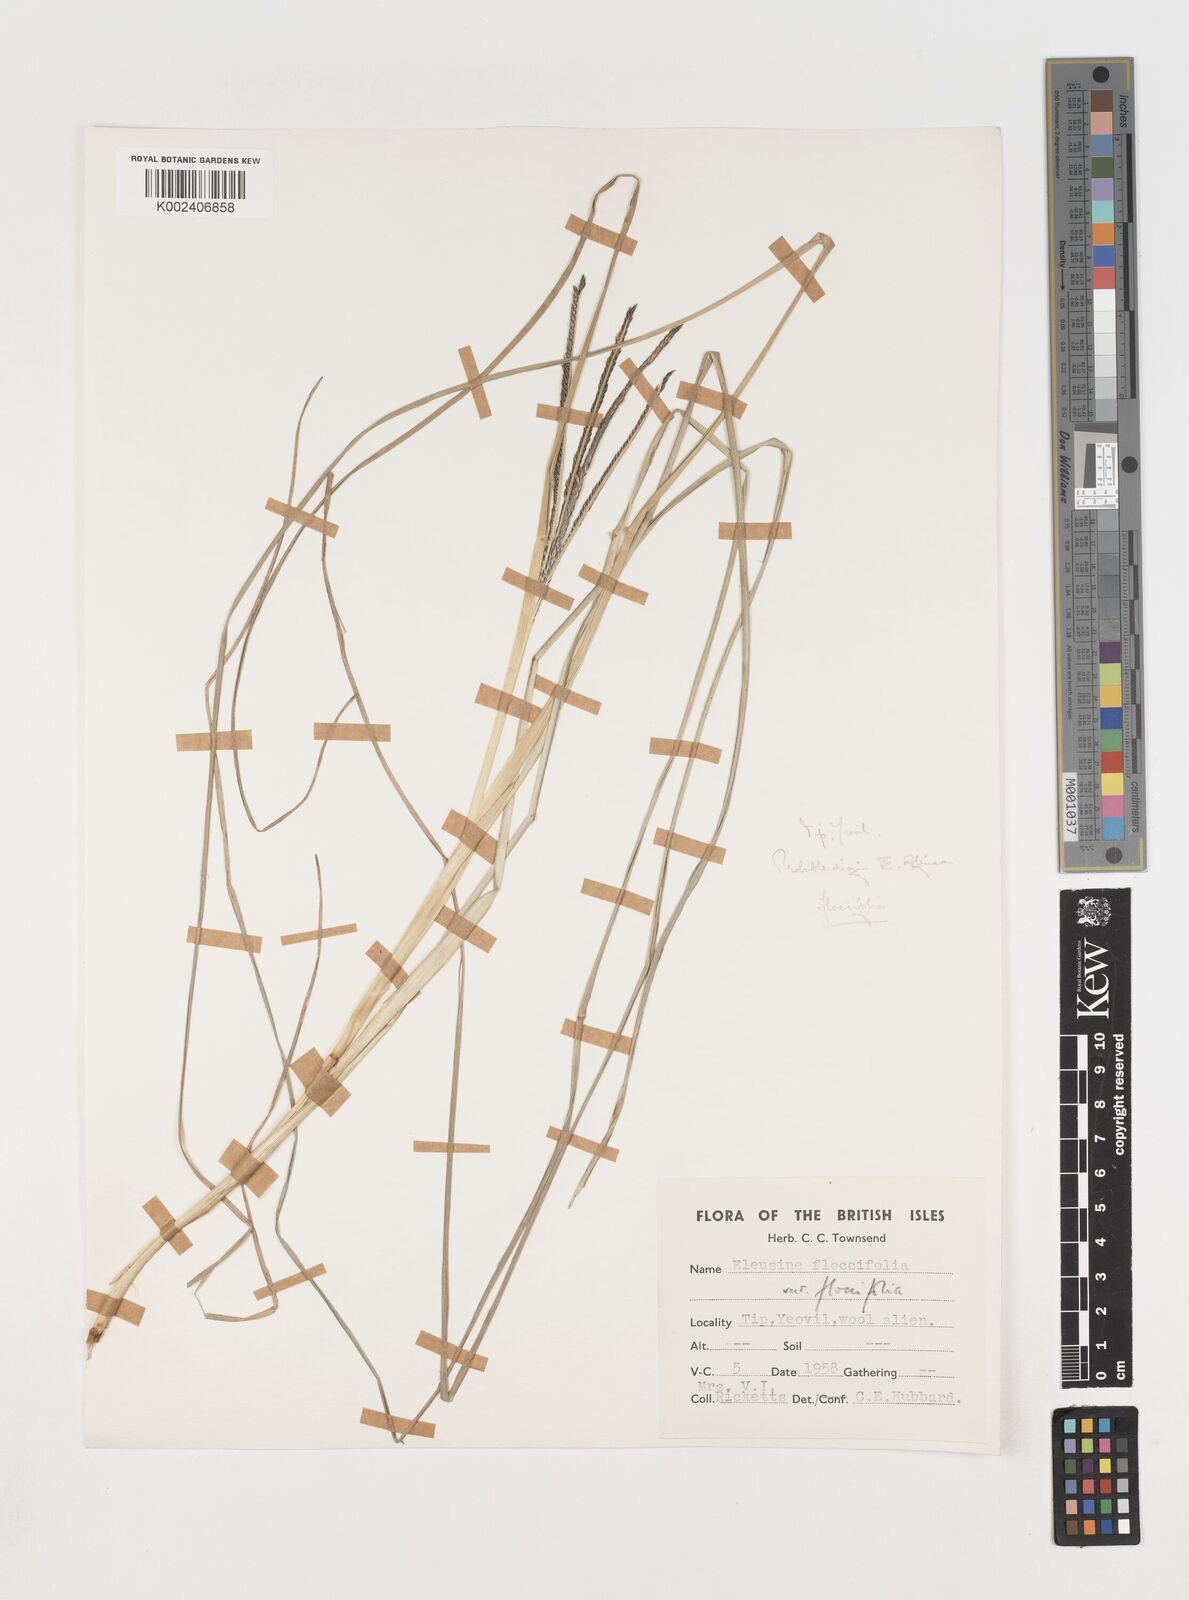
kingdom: Plantae
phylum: Tracheophyta
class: Liliopsida
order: Poales
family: Poaceae
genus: Eleusine
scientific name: Eleusine floccifolia
